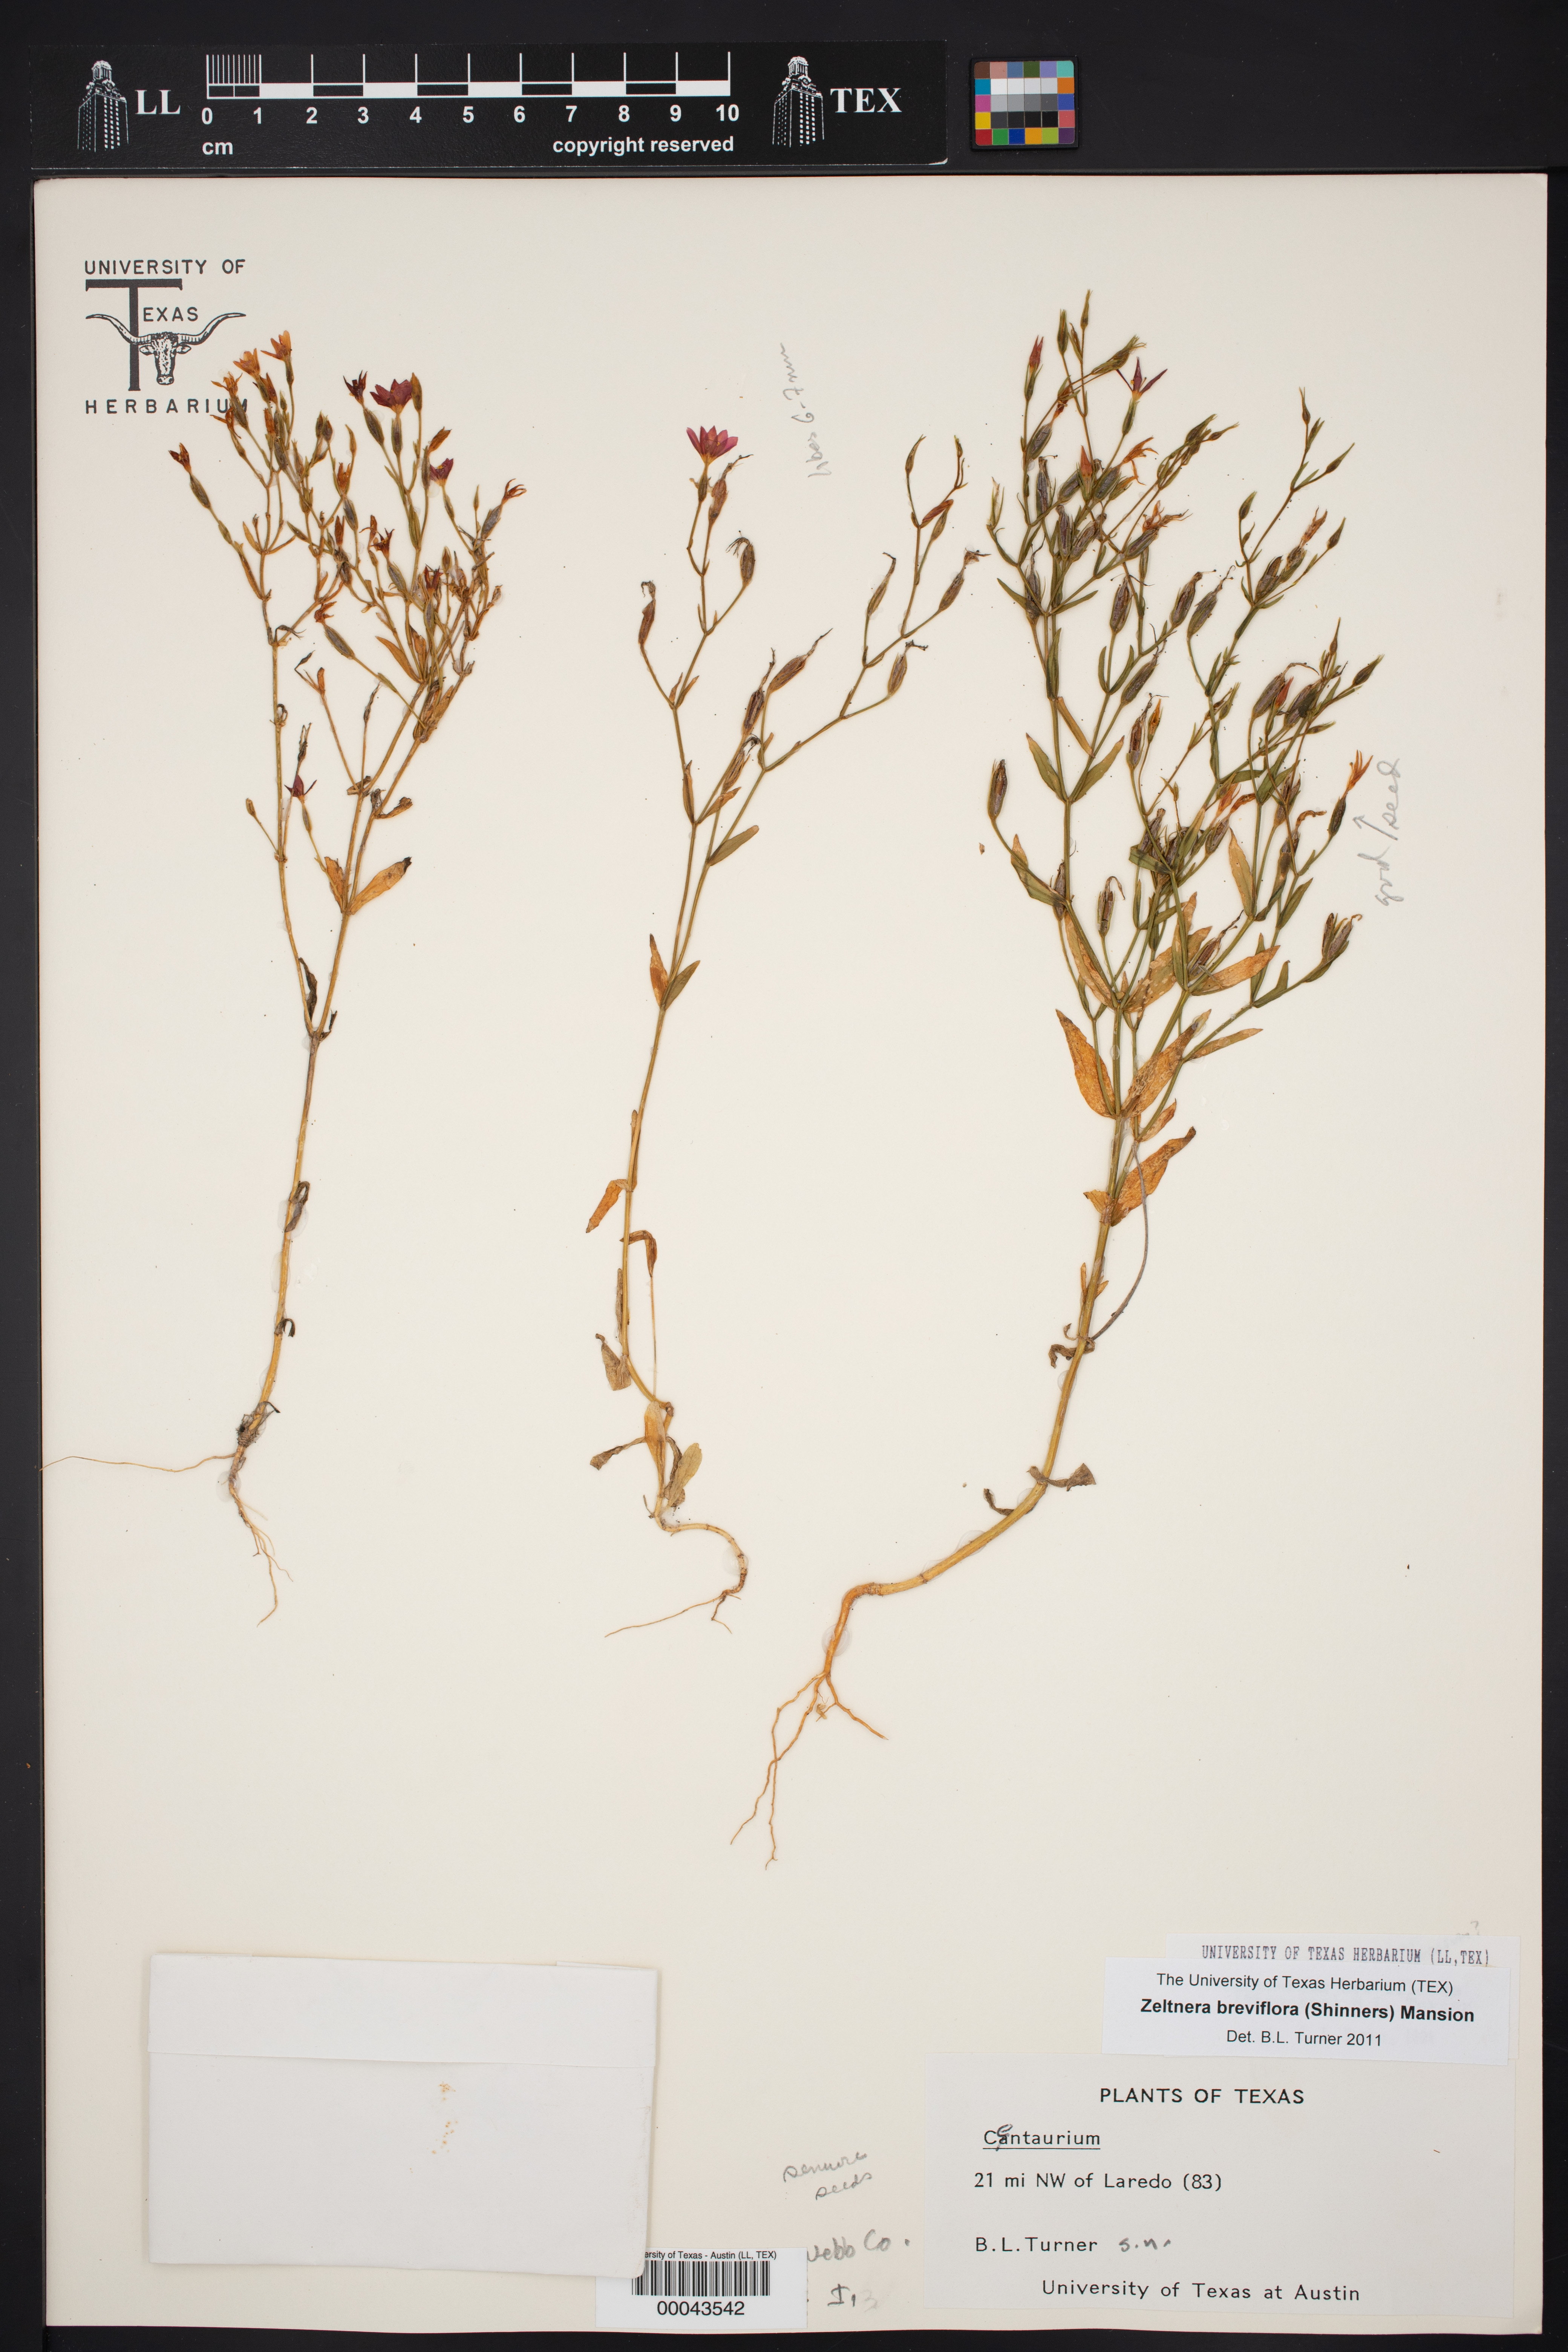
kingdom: Plantae
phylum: Tracheophyta
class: Magnoliopsida
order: Gentianales
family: Gentianaceae
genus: Zeltnera
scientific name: Zeltnera breviflora
